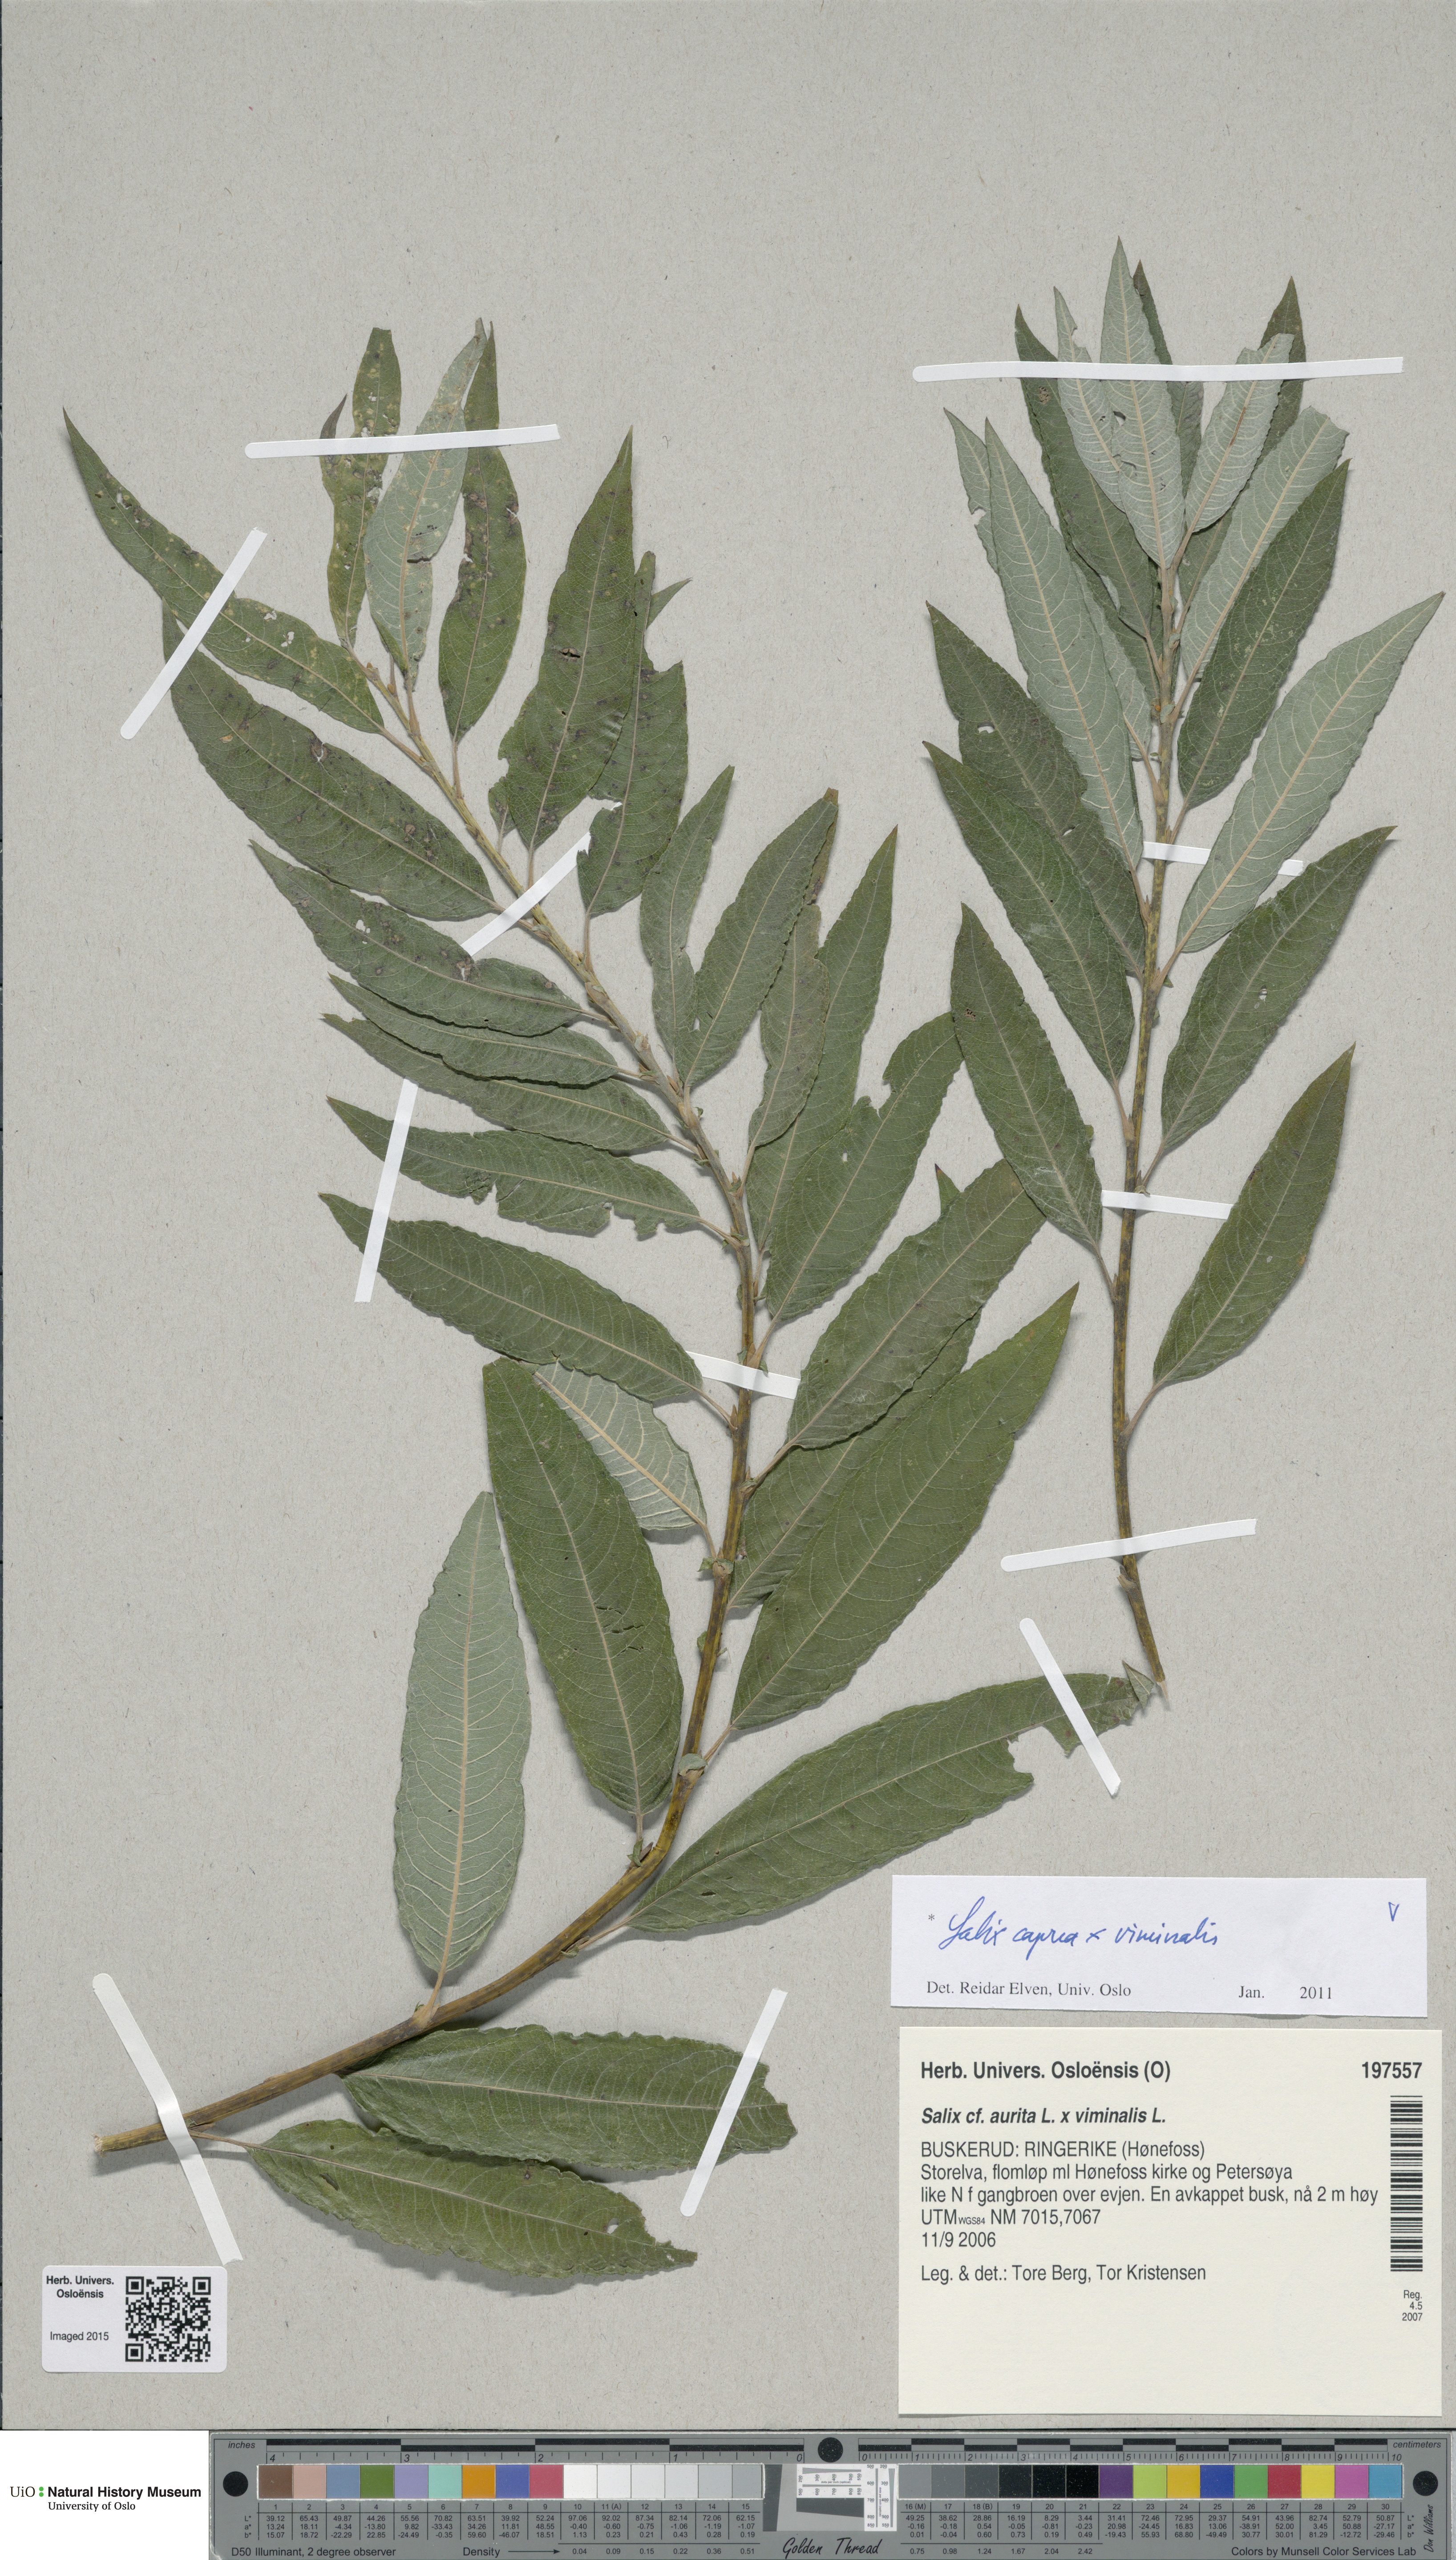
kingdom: Plantae
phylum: Tracheophyta
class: Magnoliopsida
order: Malpighiales
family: Salicaceae
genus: Salix
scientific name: Salix
